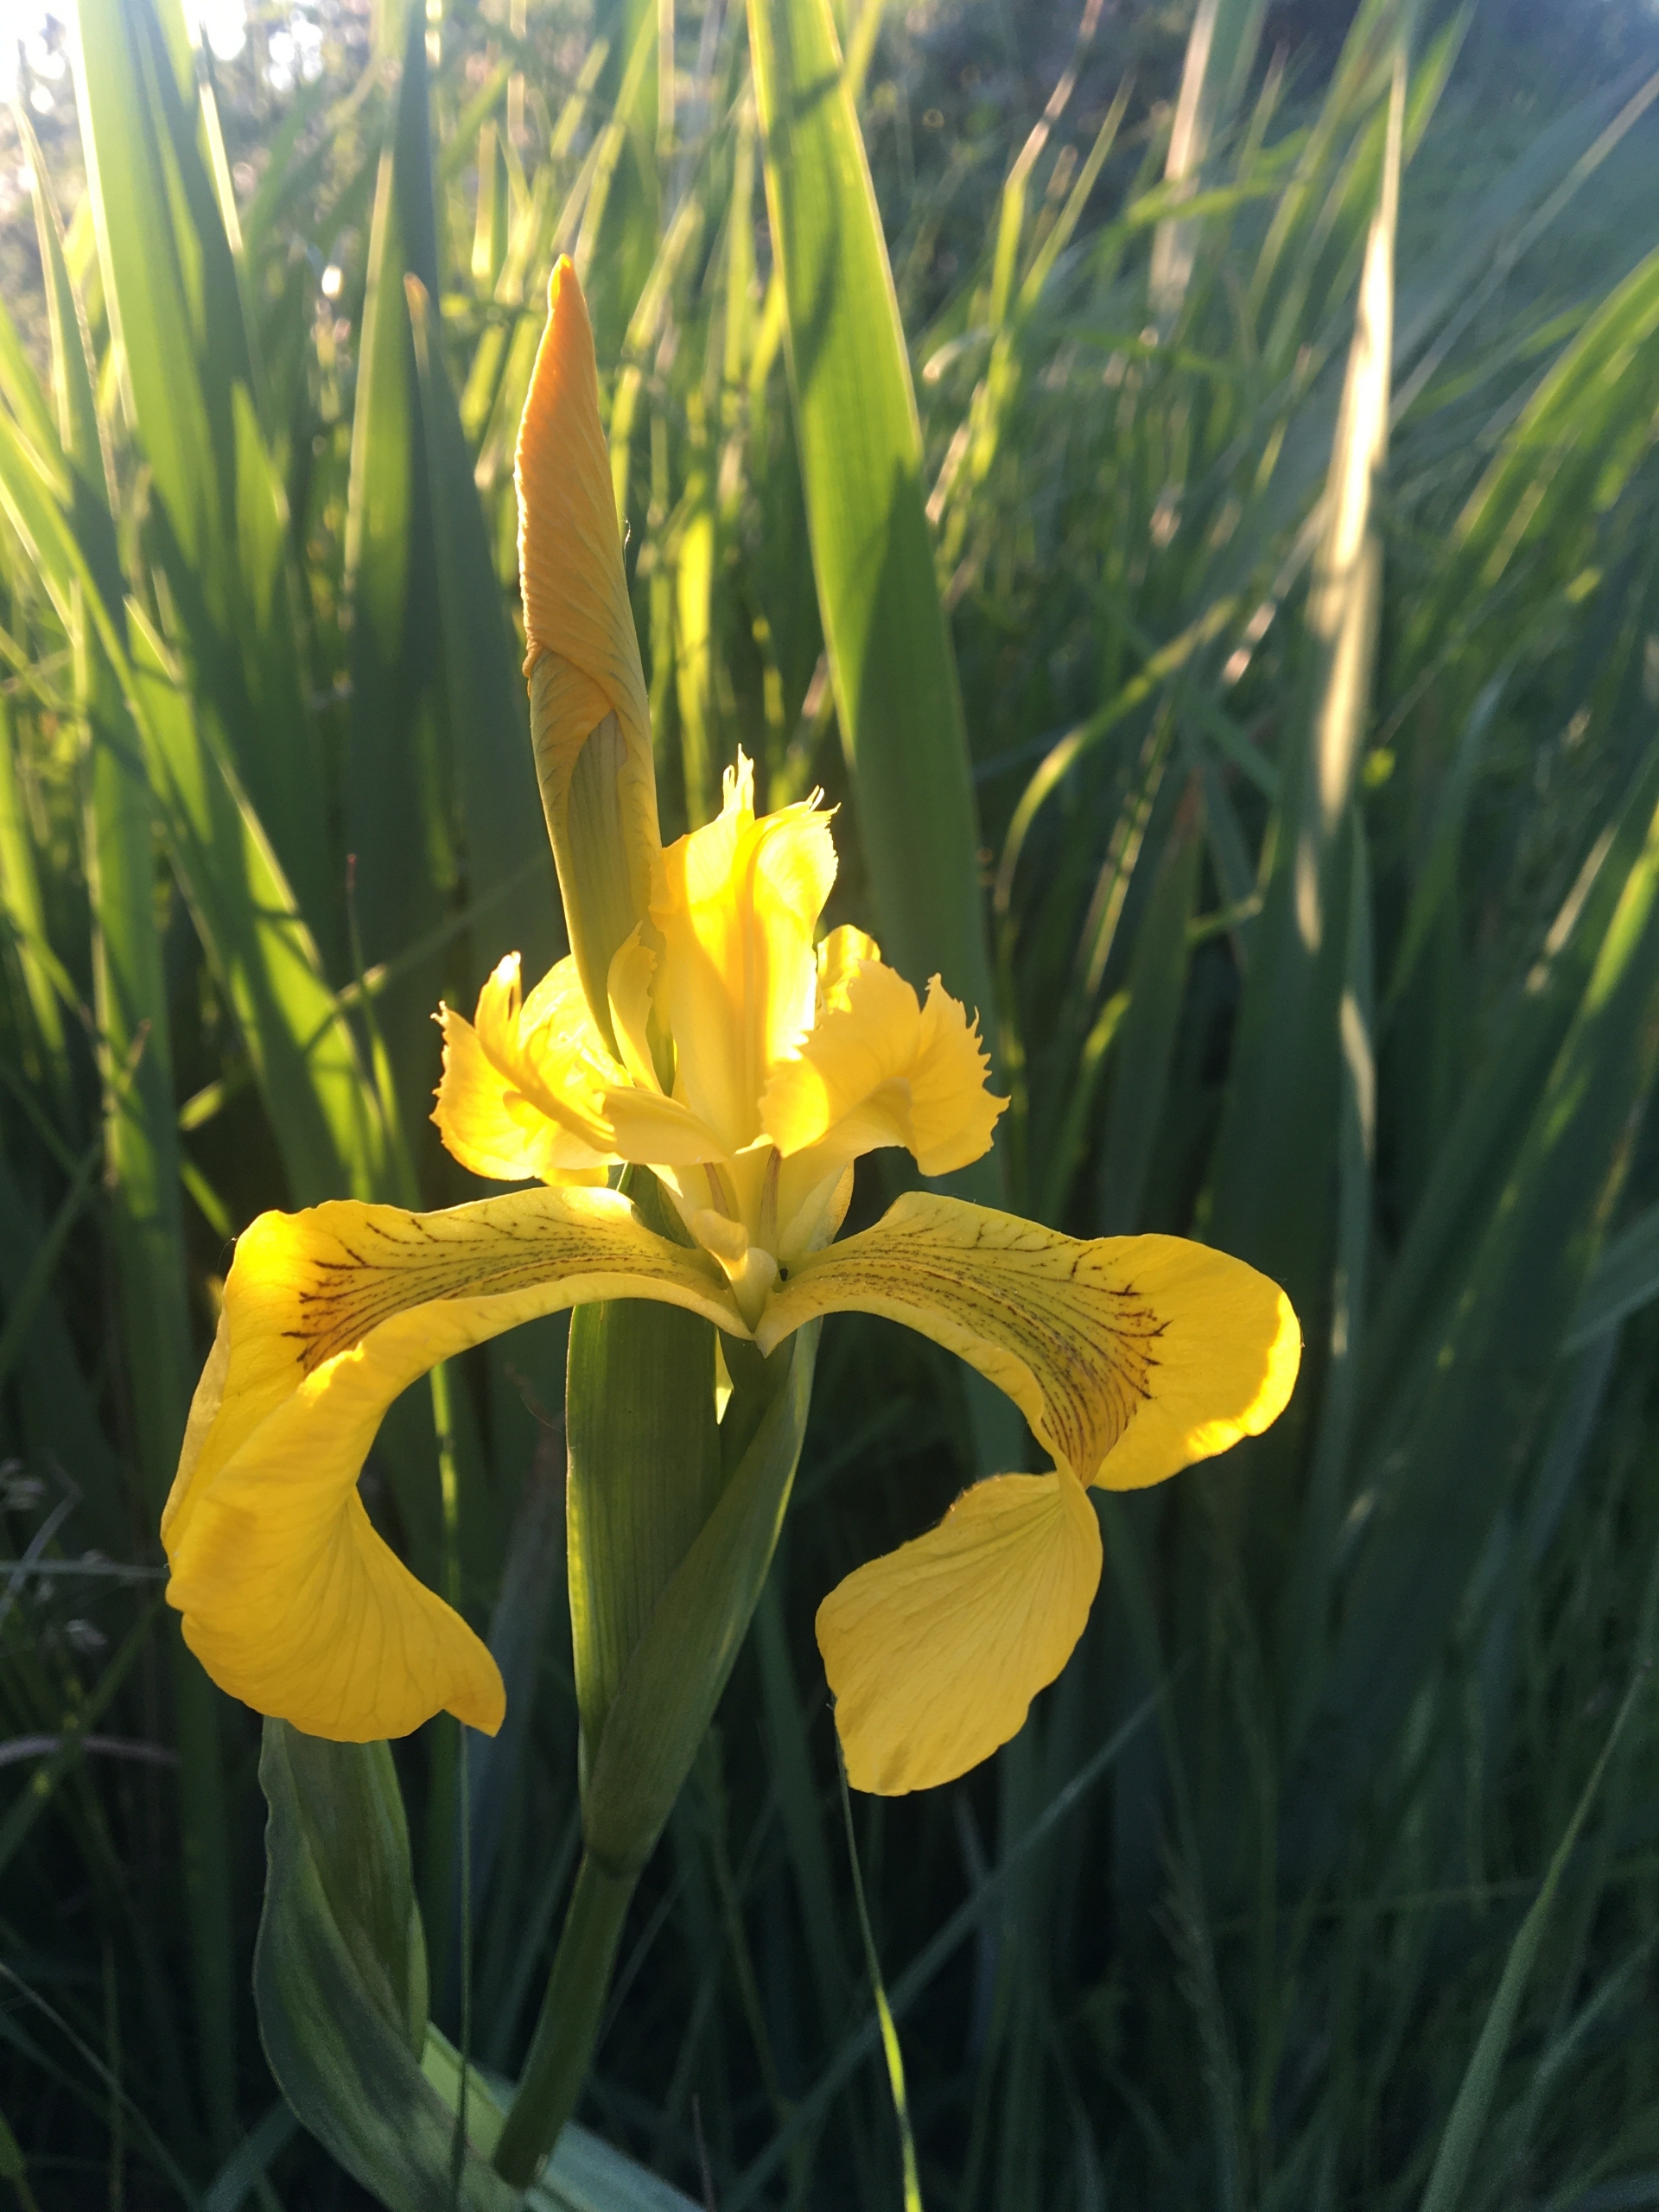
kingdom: Plantae
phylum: Tracheophyta
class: Liliopsida
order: Asparagales
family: Iridaceae
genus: Iris
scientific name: Iris pseudacorus
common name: Gul iris
